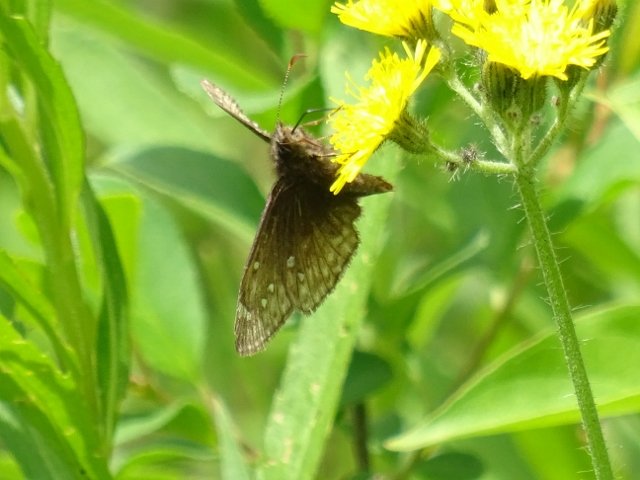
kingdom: Animalia
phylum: Arthropoda
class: Insecta
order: Lepidoptera
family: Hesperiidae
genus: Gesta
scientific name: Gesta
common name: Juvenal's Duskywing
